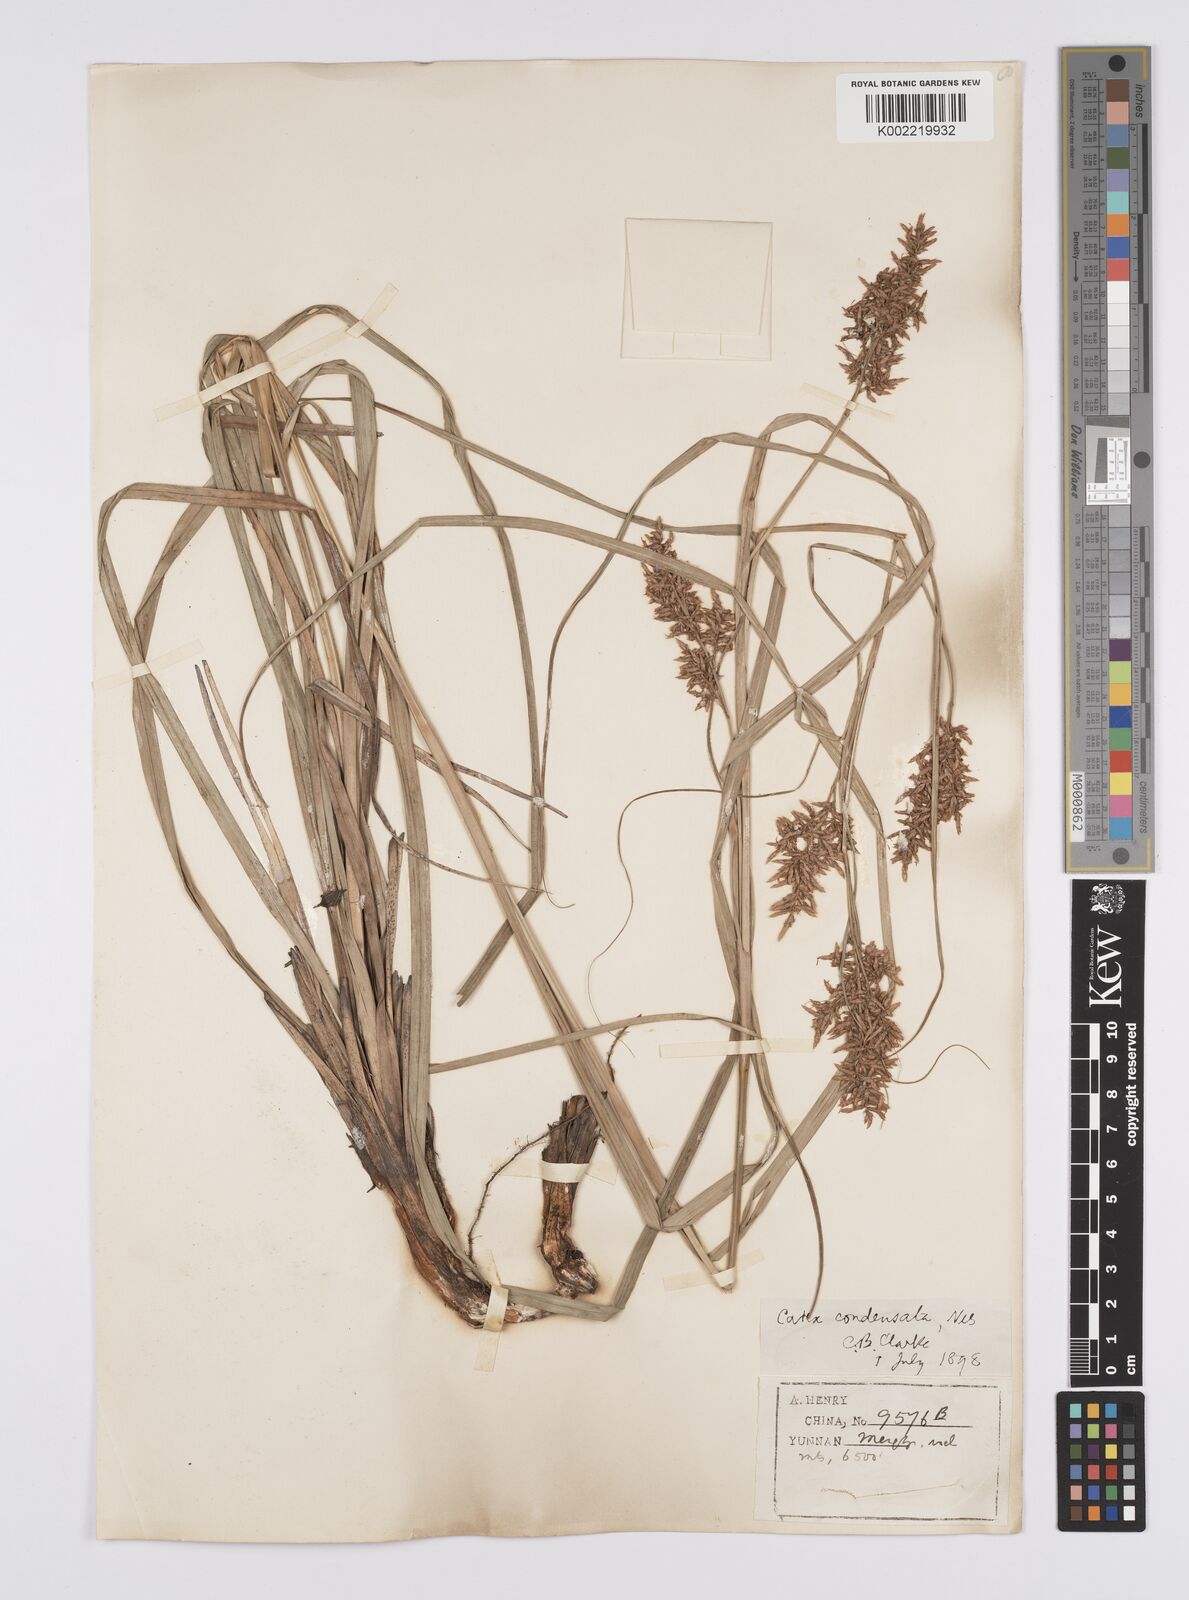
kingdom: Plantae
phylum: Tracheophyta
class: Liliopsida
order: Poales
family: Cyperaceae
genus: Carex
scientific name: Carex cruciata
